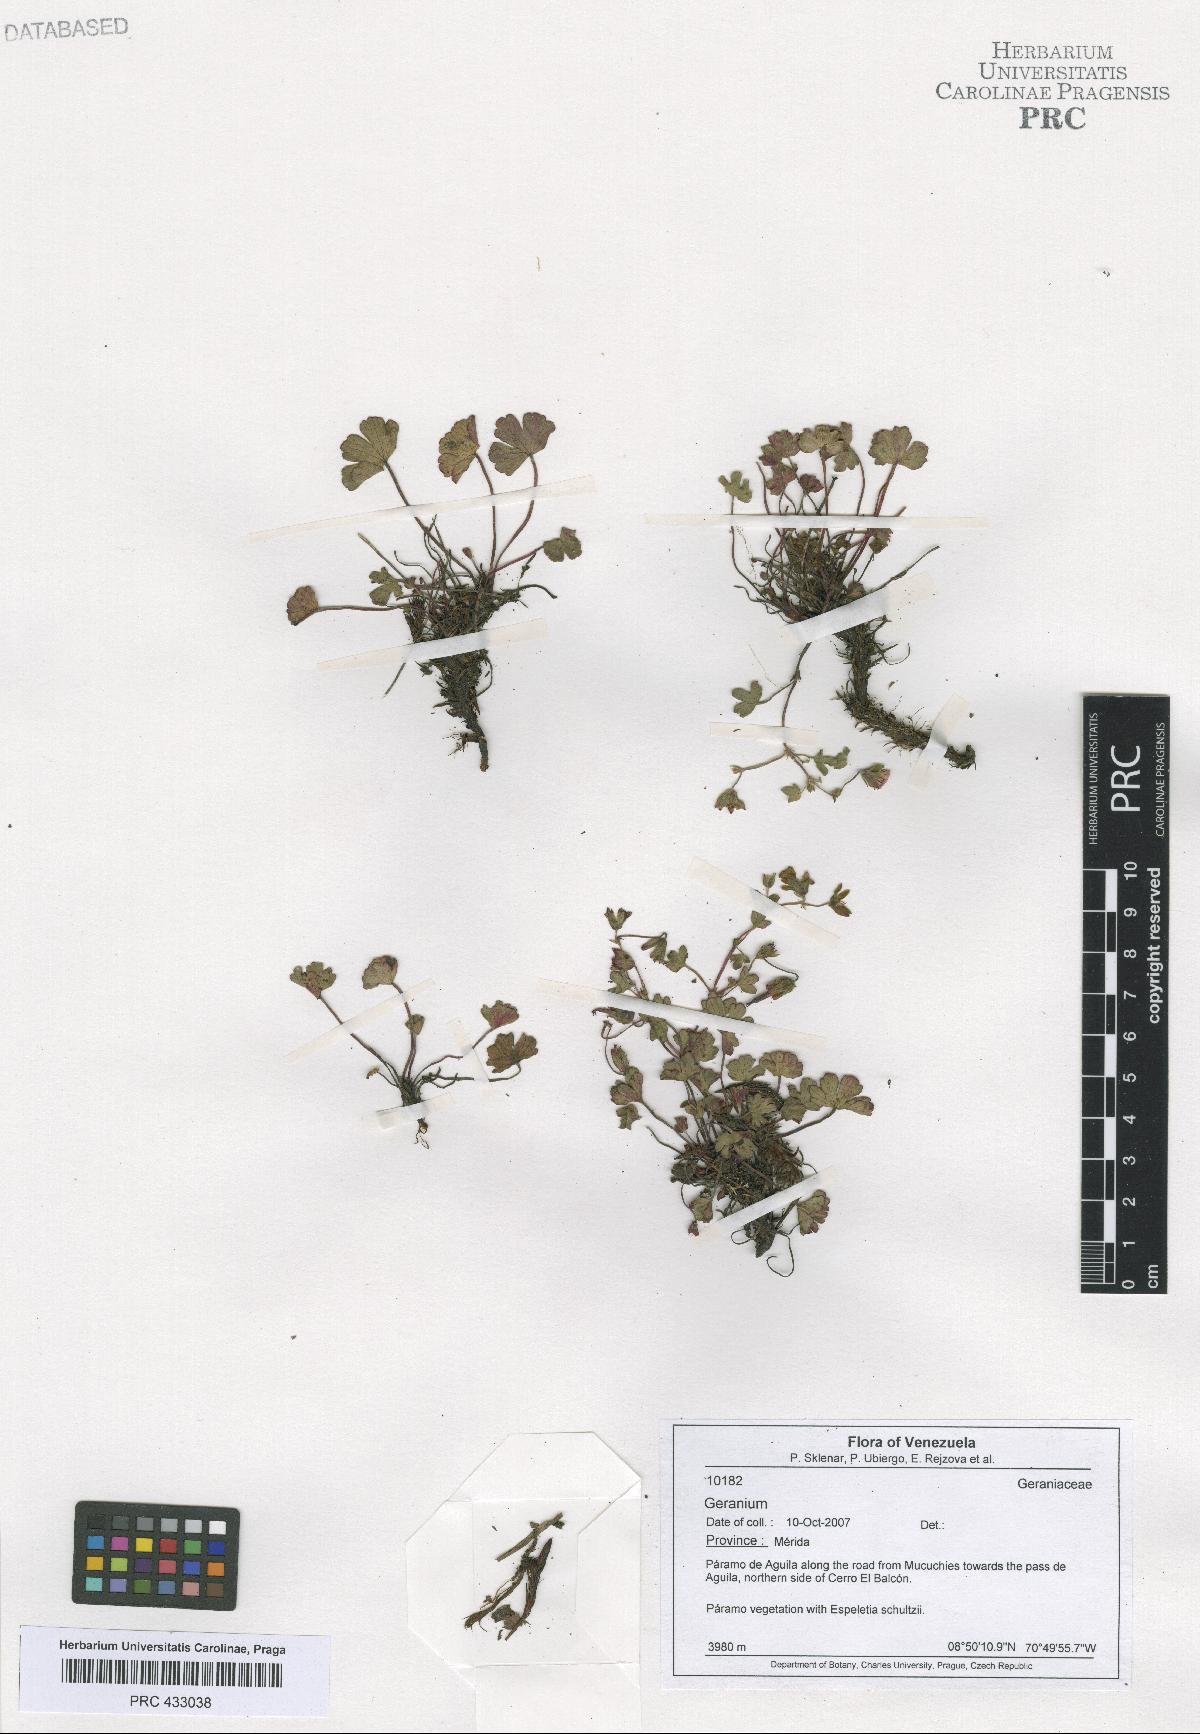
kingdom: Plantae
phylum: Tracheophyta
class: Magnoliopsida
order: Geraniales
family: Geraniaceae
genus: Geranium
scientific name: Geranium multiceps
